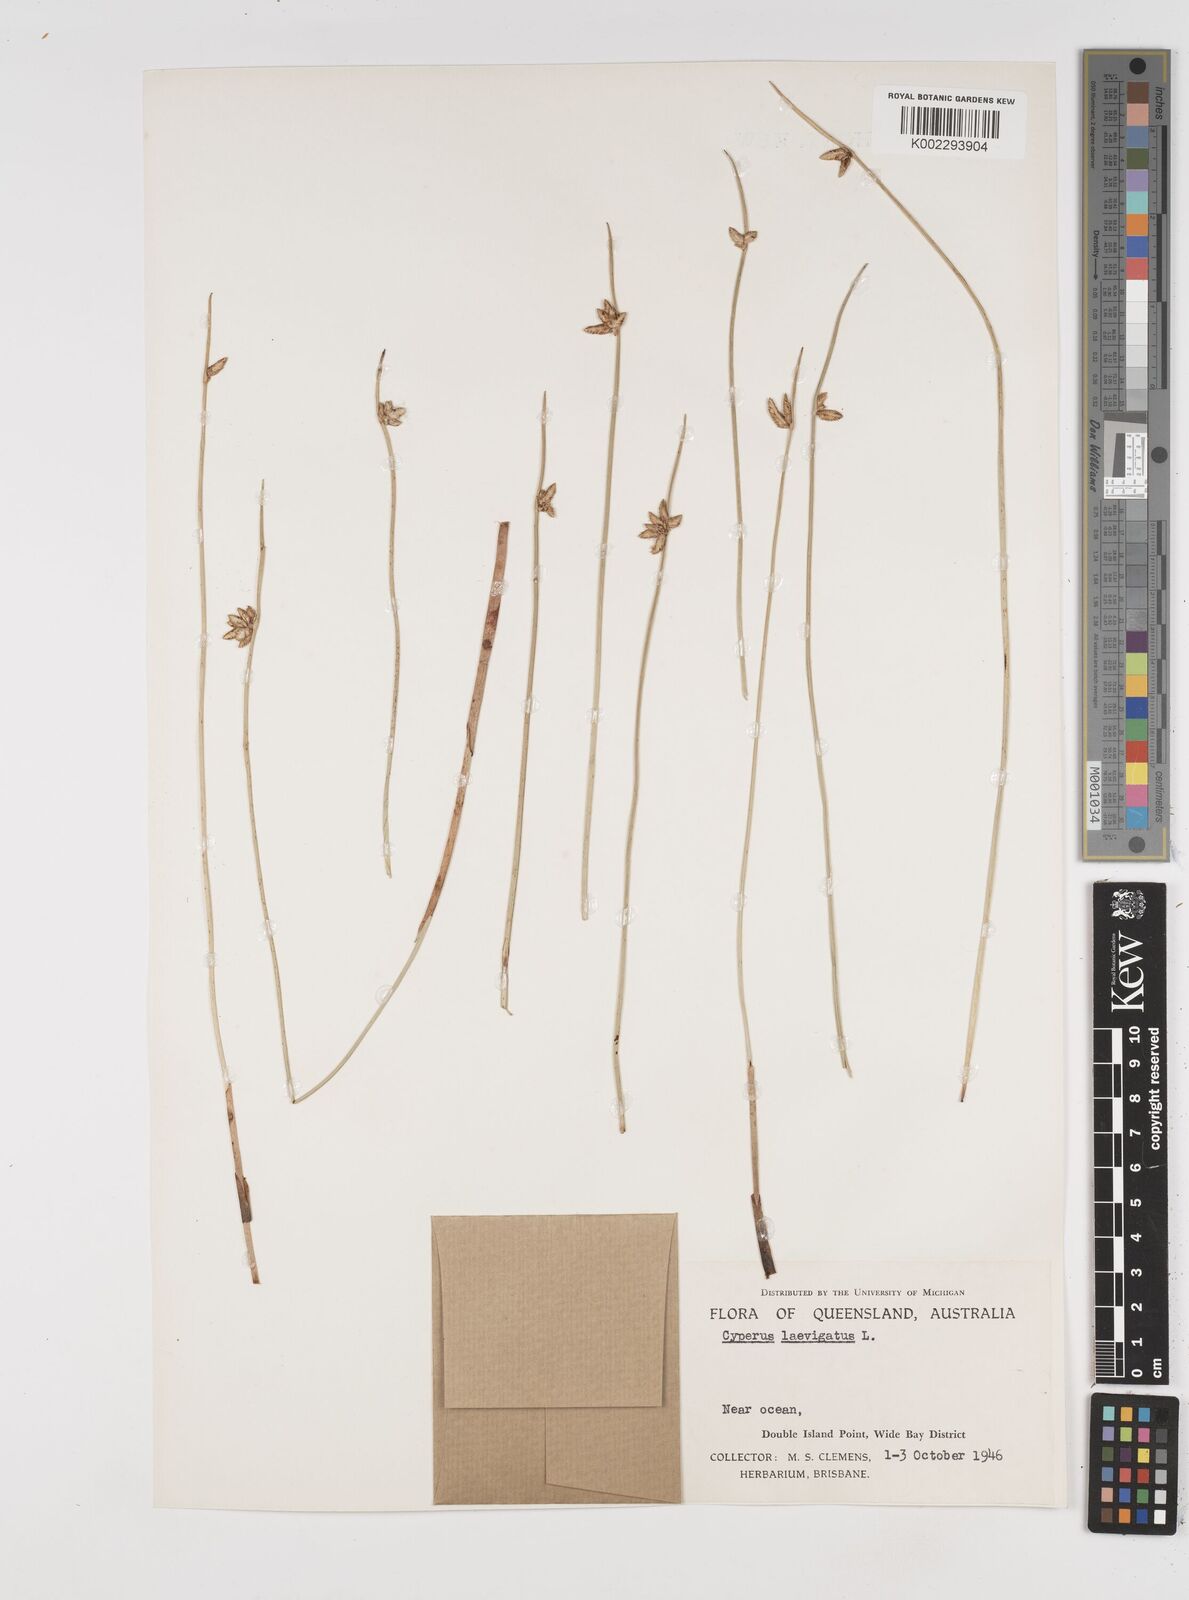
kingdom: Plantae
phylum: Tracheophyta
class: Liliopsida
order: Poales
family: Cyperaceae
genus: Cyperus
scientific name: Cyperus laevigatus
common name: Smooth flat sedge
